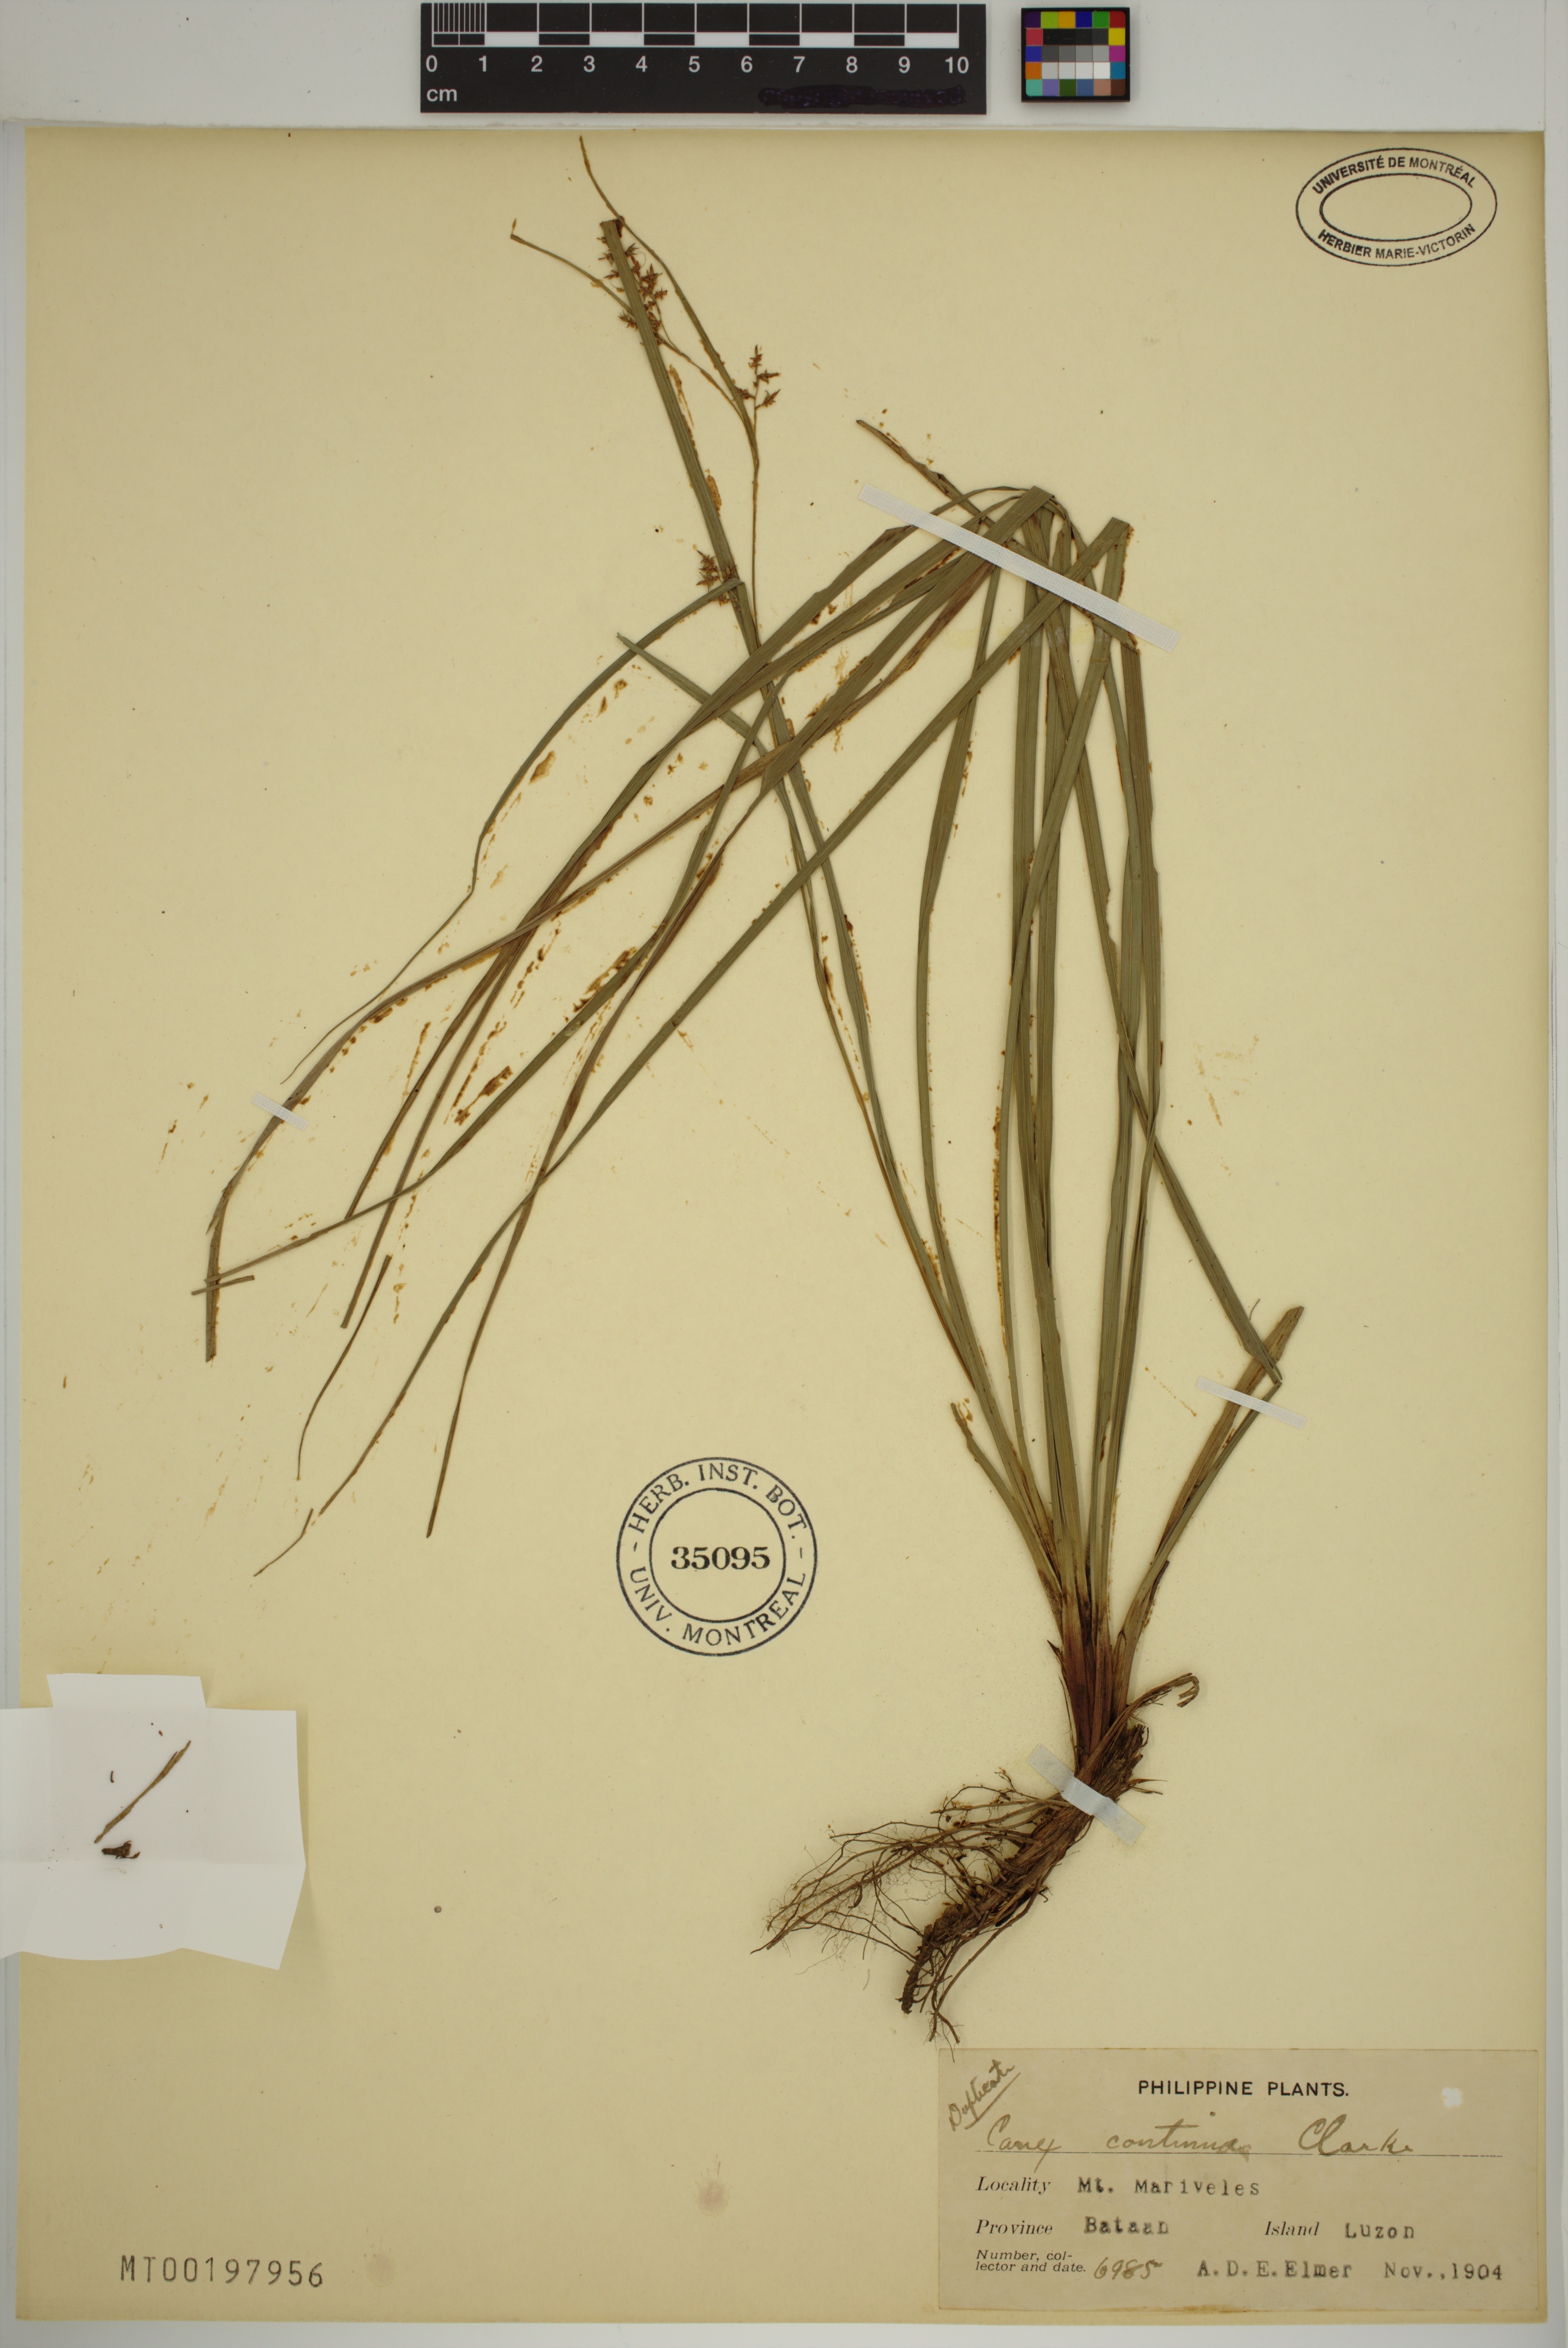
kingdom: Plantae
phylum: Tracheophyta
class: Liliopsida
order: Poales
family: Cyperaceae
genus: Carex
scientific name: Carex continua
